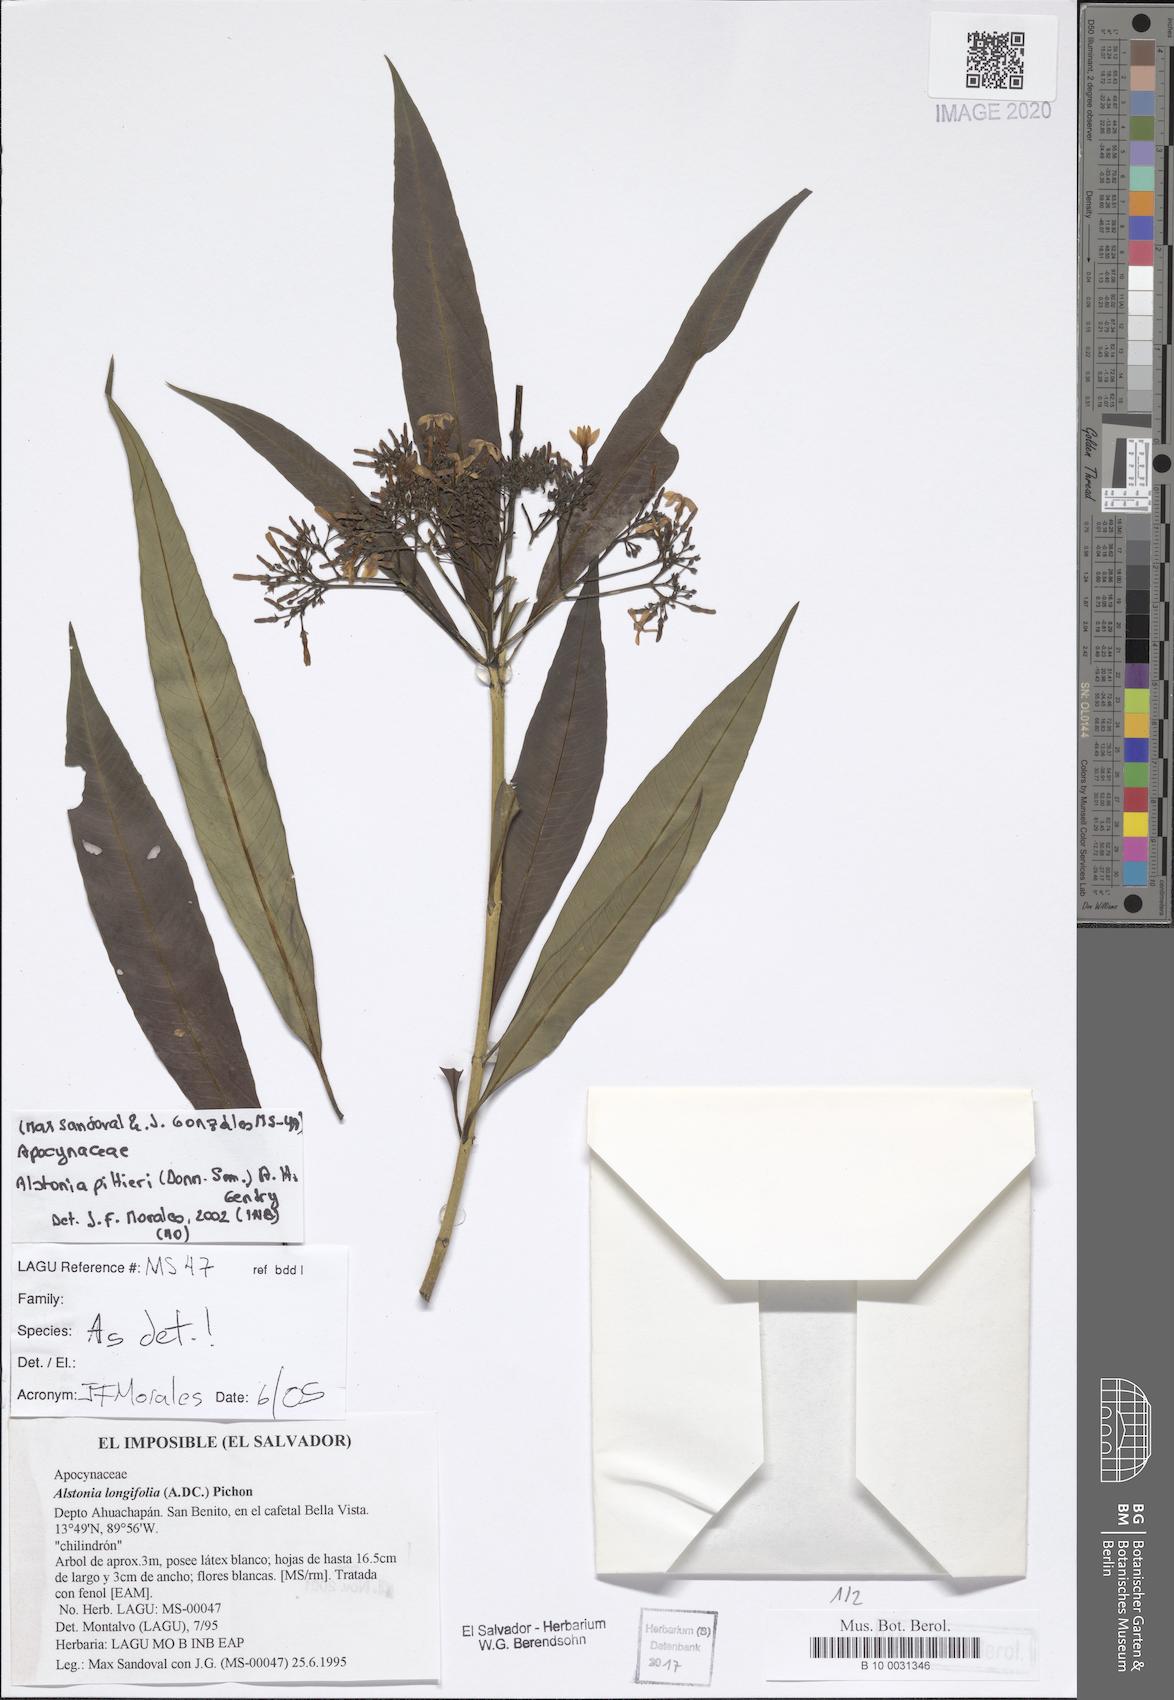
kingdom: Plantae
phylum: Tracheophyta
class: Magnoliopsida
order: Gentianales
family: Apocynaceae
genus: Tonduzia
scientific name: Tonduzia longifolia
